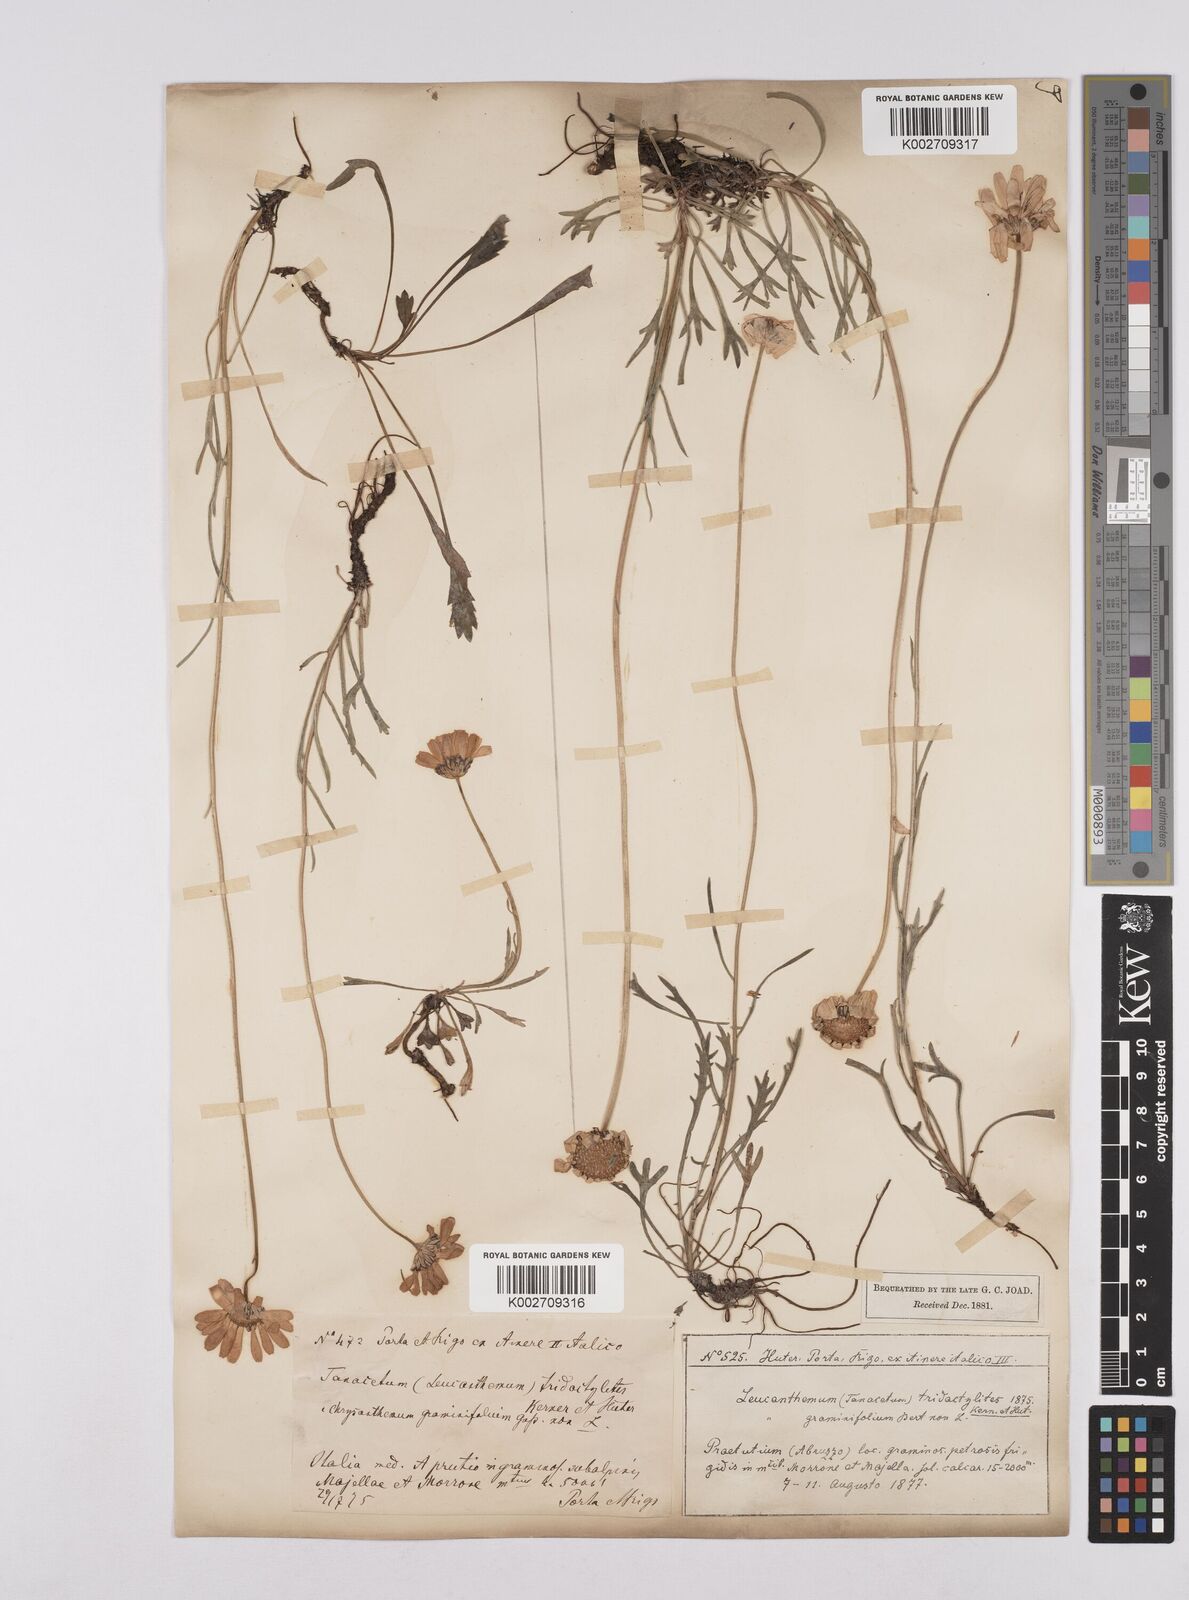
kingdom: Plantae
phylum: Tracheophyta
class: Magnoliopsida
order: Asterales
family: Asteraceae
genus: Leucanthemum
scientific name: Leucanthemum chloroticum
